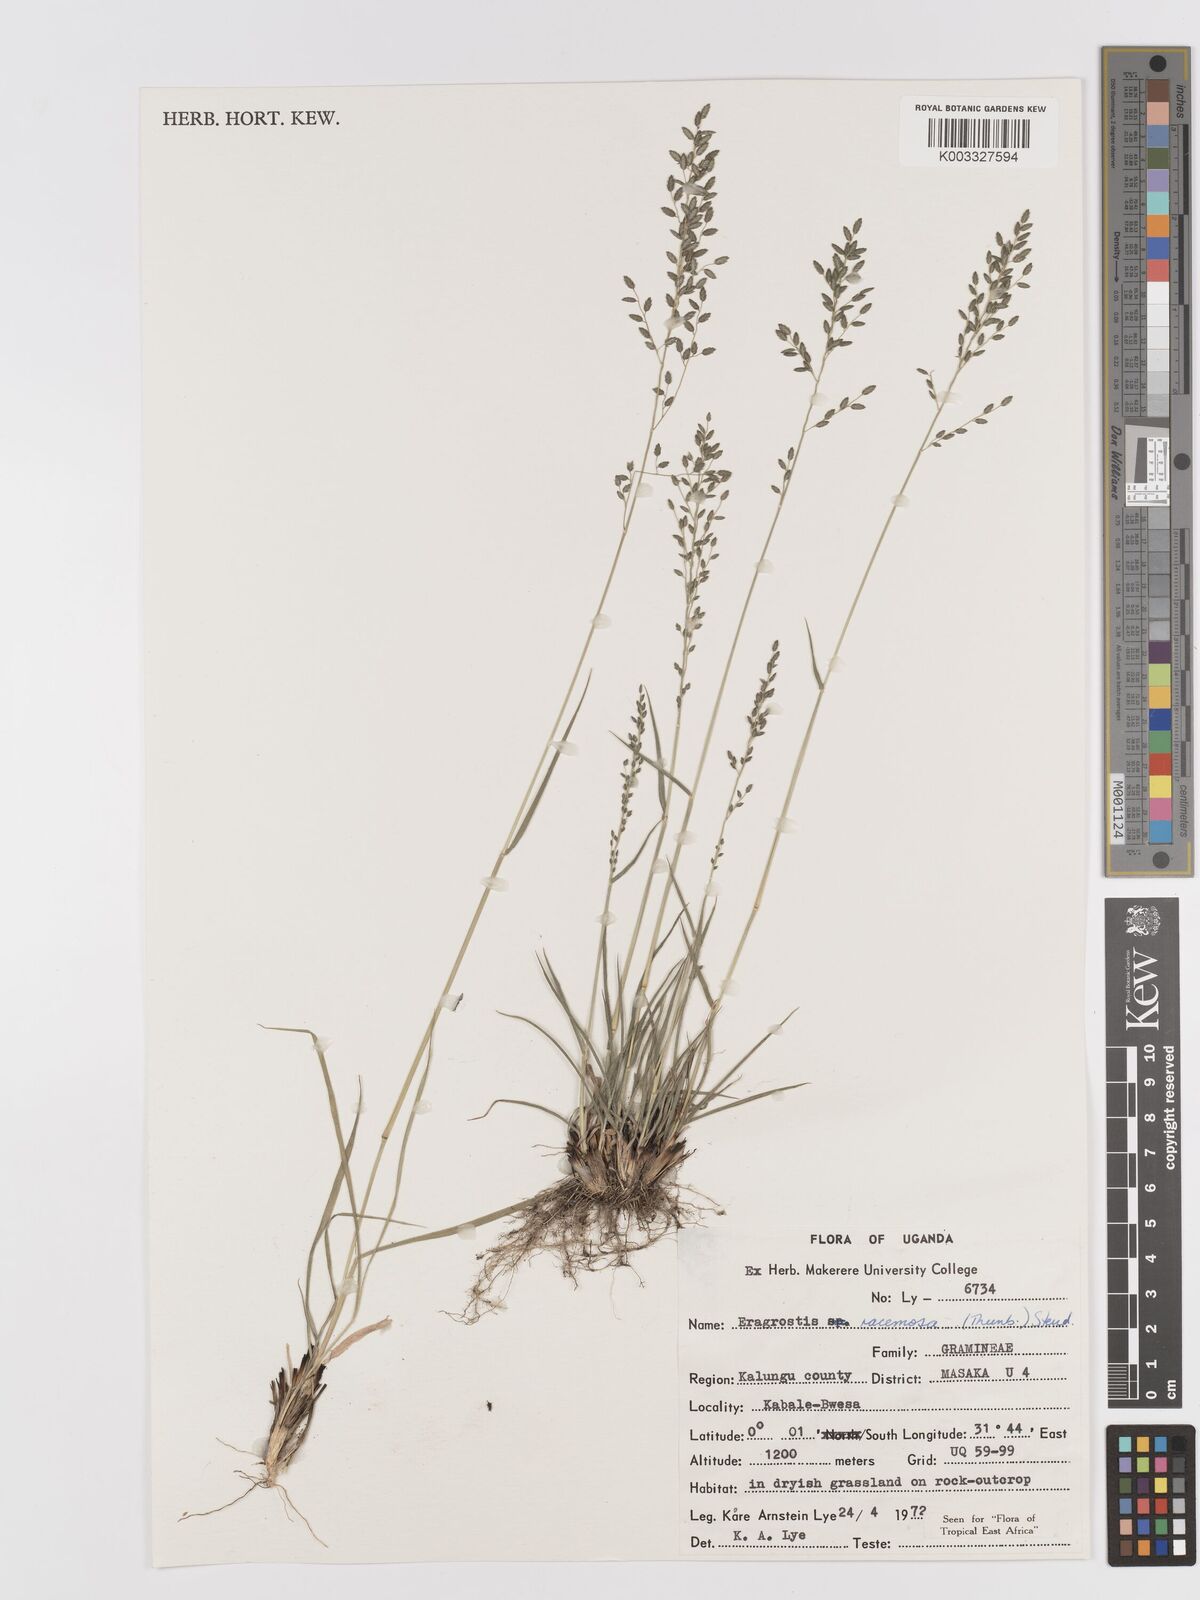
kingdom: Plantae
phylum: Tracheophyta
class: Liliopsida
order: Poales
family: Poaceae
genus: Eragrostis
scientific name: Eragrostis racemosa
